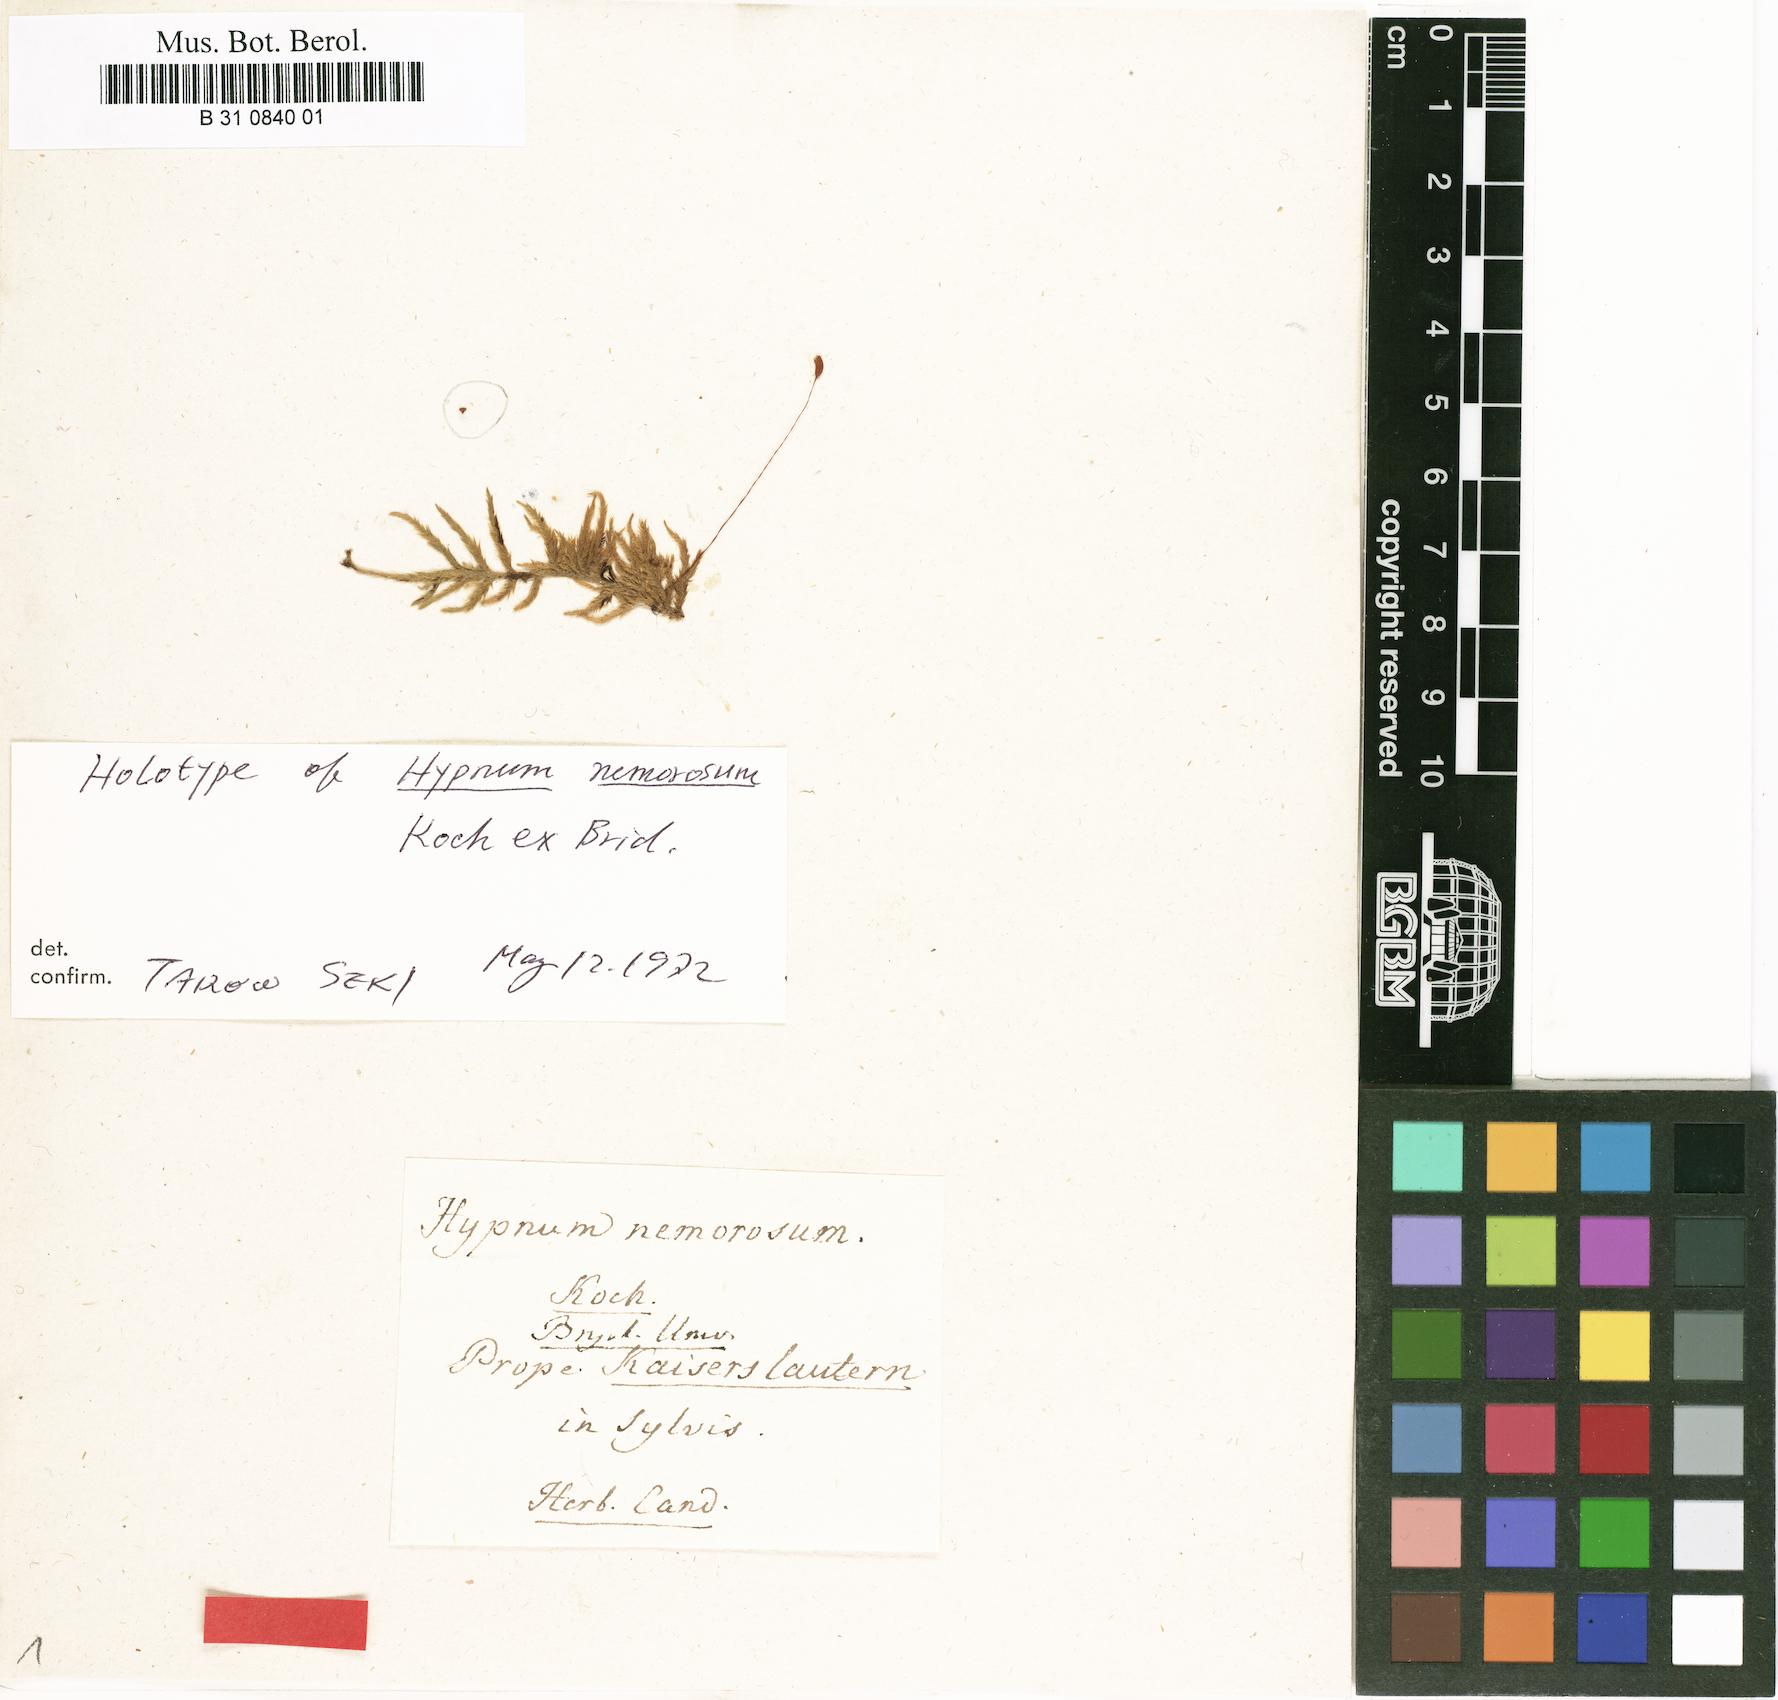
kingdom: Plantae
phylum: Bryophyta
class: Bryopsida
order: Hypnales
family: Pylaisiadelphaceae
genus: Heterophyllium
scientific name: Heterophyllium nemorosum
